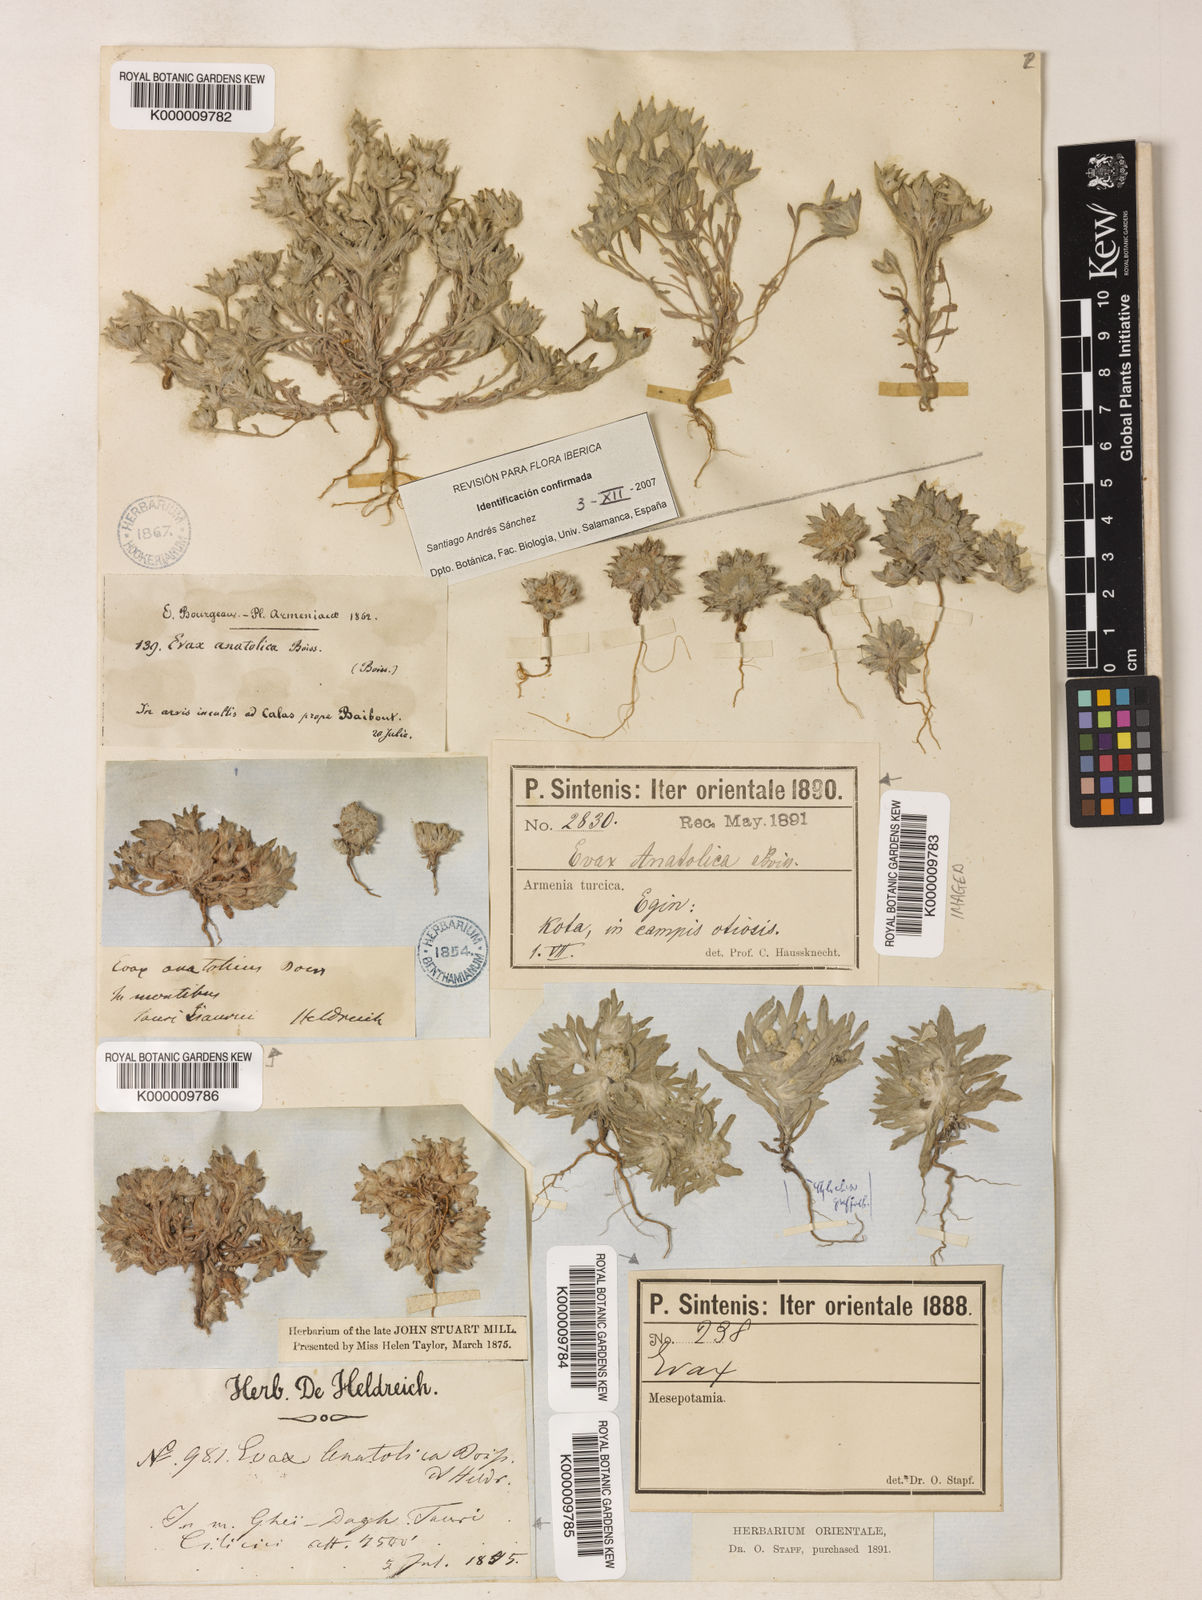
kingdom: Plantae
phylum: Tracheophyta
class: Magnoliopsida
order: Asterales
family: Asteraceae
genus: Filago
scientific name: Filago anatolica
